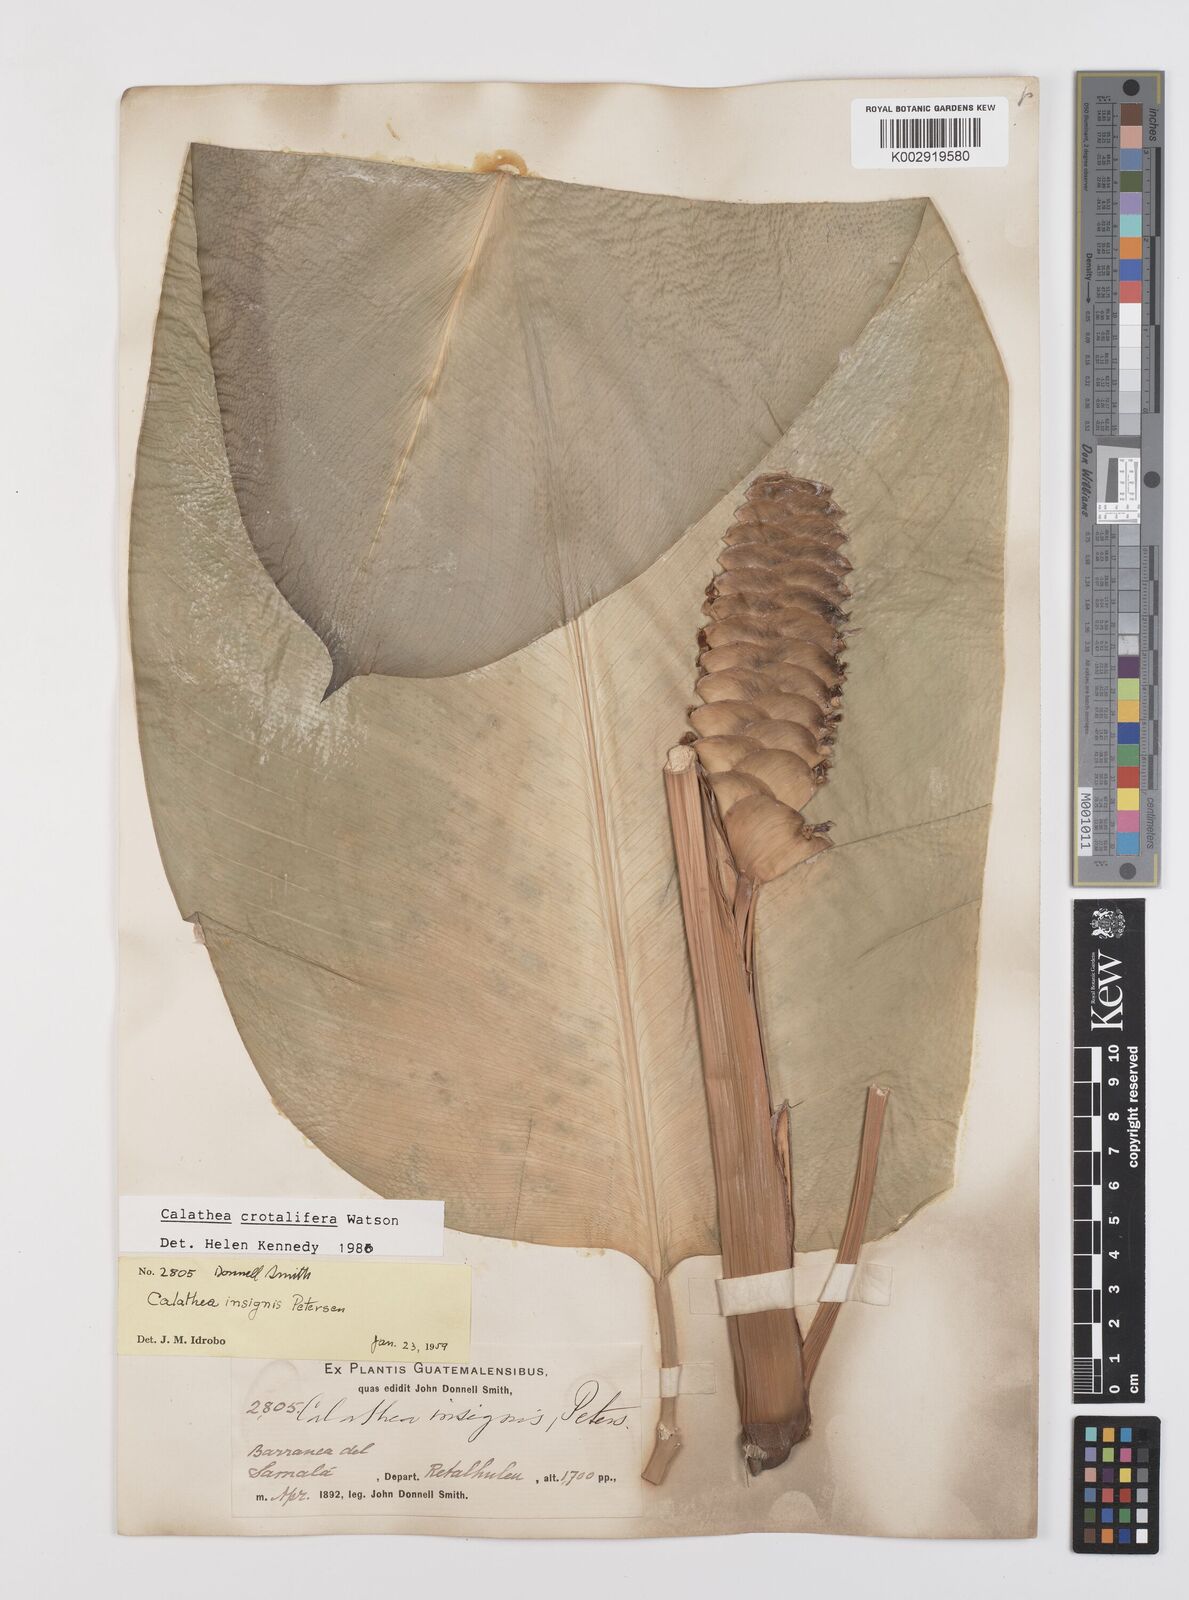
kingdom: Plantae
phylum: Tracheophyta
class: Liliopsida
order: Zingiberales
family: Marantaceae
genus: Calathea
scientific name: Calathea crotalifera
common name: Rattlesnake plant
